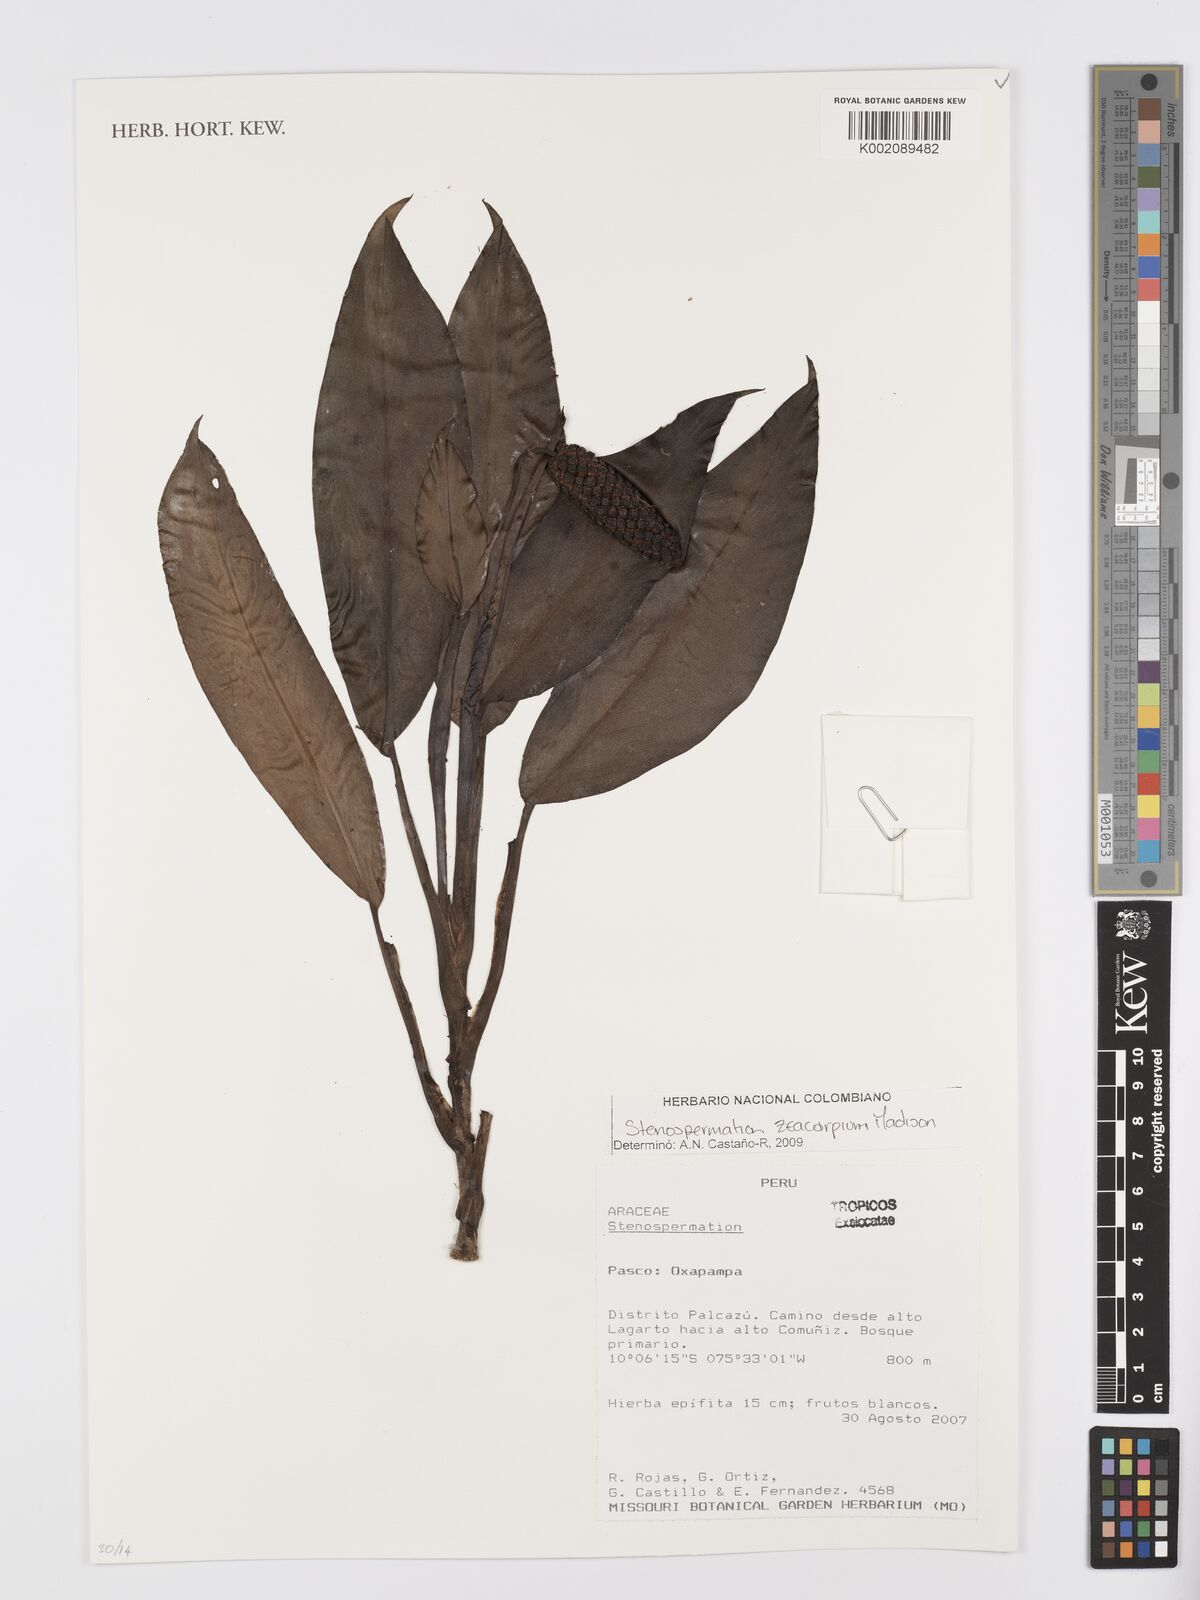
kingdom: Plantae
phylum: Tracheophyta
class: Liliopsida
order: Alismatales
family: Araceae
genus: Stenospermation
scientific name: Stenospermation zeacarpium
